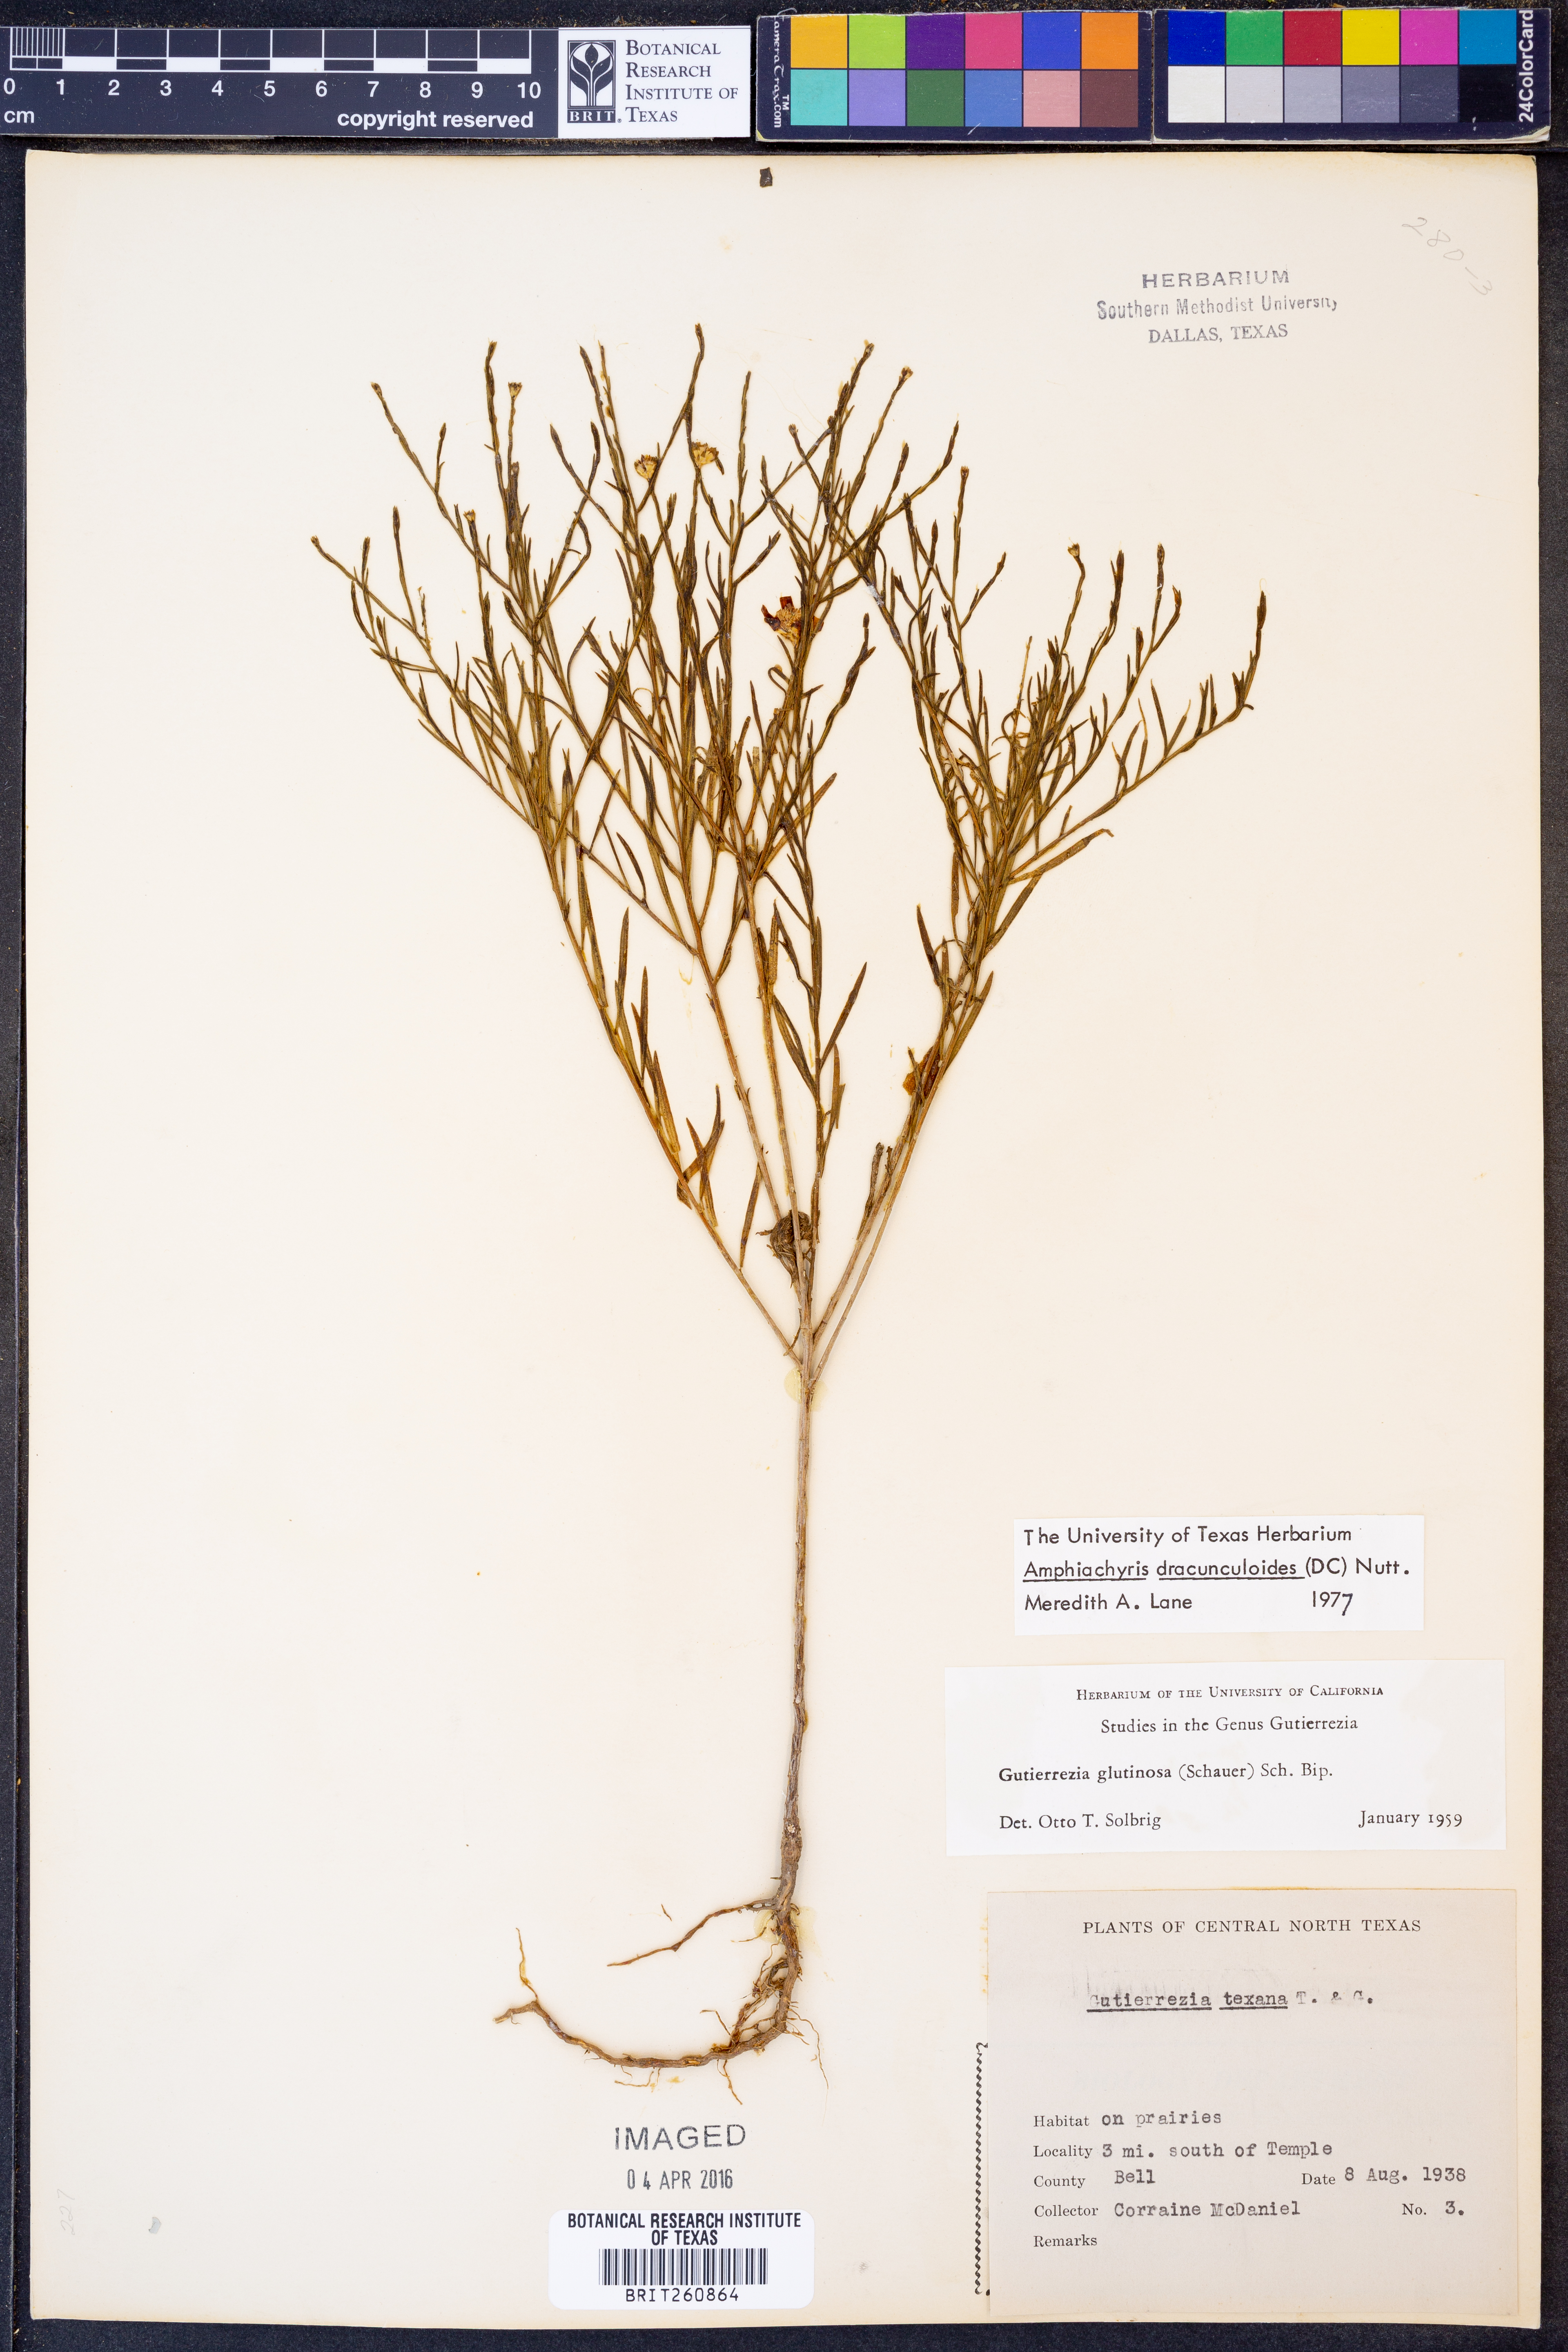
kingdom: Plantae
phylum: Tracheophyta
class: Magnoliopsida
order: Asterales
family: Asteraceae
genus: Amphiachyris
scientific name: Amphiachyris dracunculoides
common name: Broomweed
